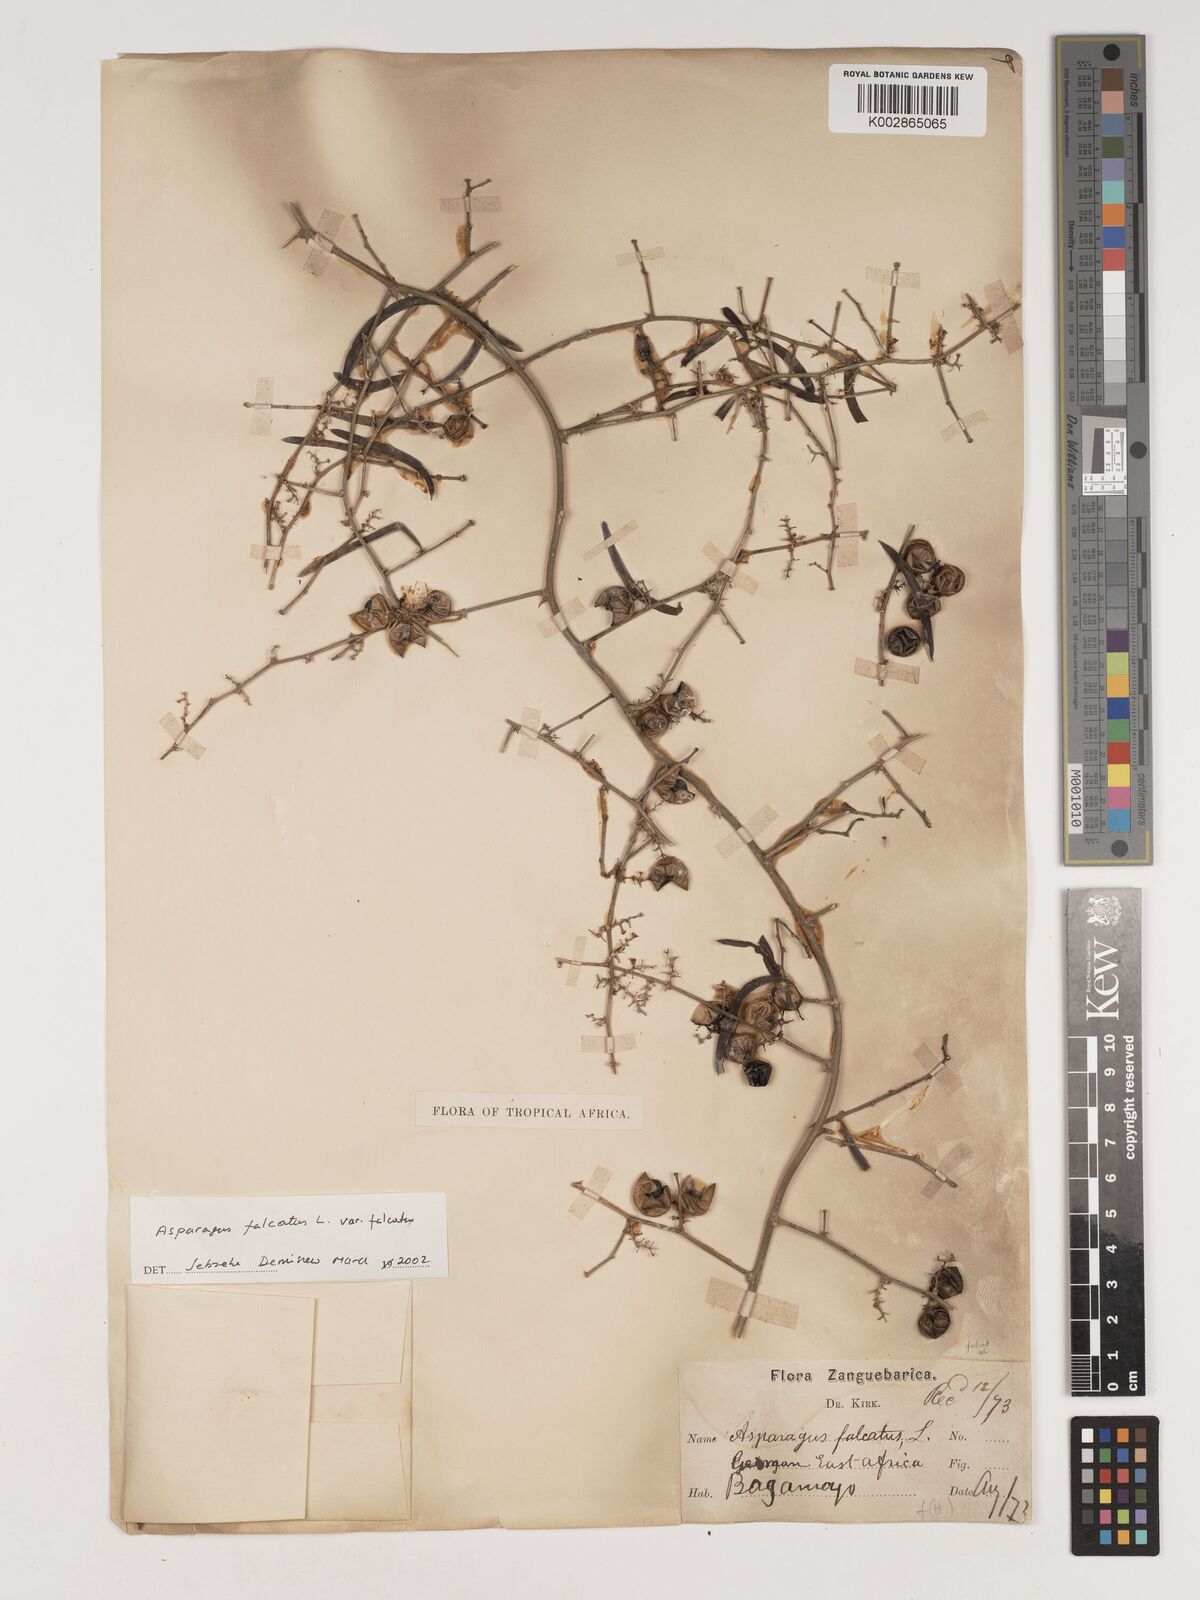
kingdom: Plantae
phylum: Tracheophyta
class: Liliopsida
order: Asparagales
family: Asparagaceae
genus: Asparagus
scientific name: Asparagus falcatus
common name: Asparagus
